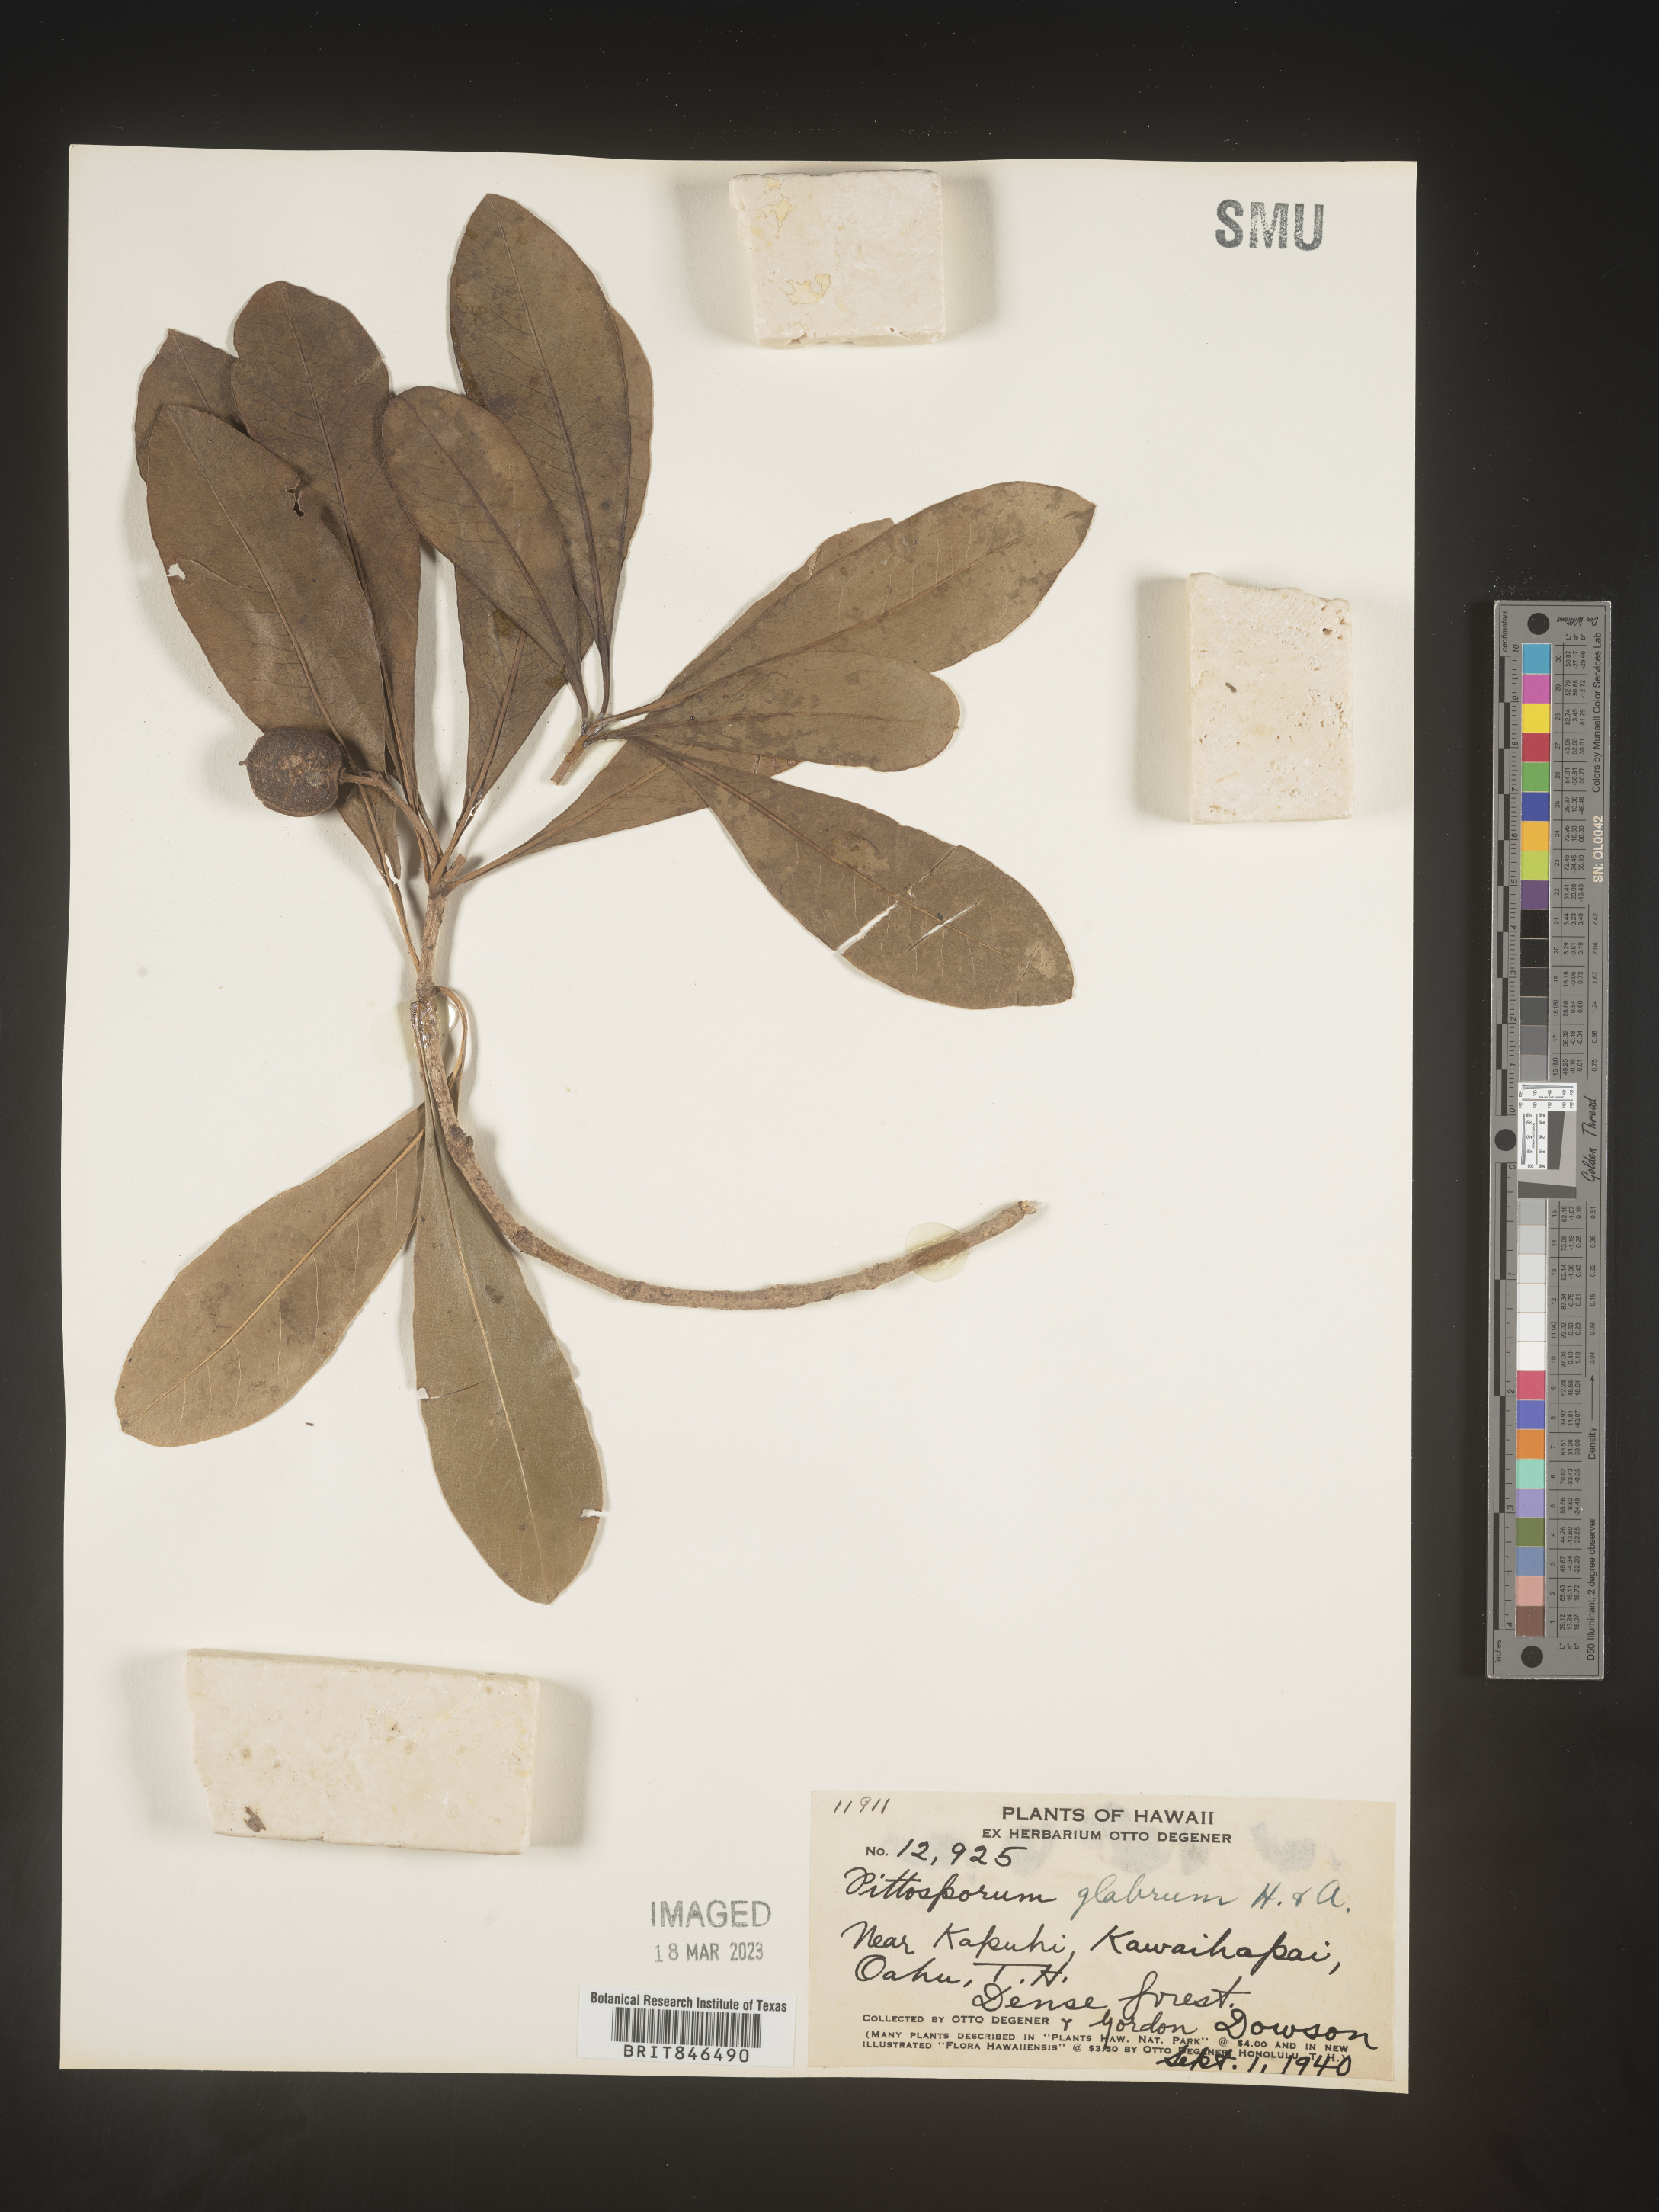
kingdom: Plantae
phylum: Tracheophyta
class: Magnoliopsida
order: Apiales
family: Pittosporaceae
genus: Pittosporum
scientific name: Pittosporum
